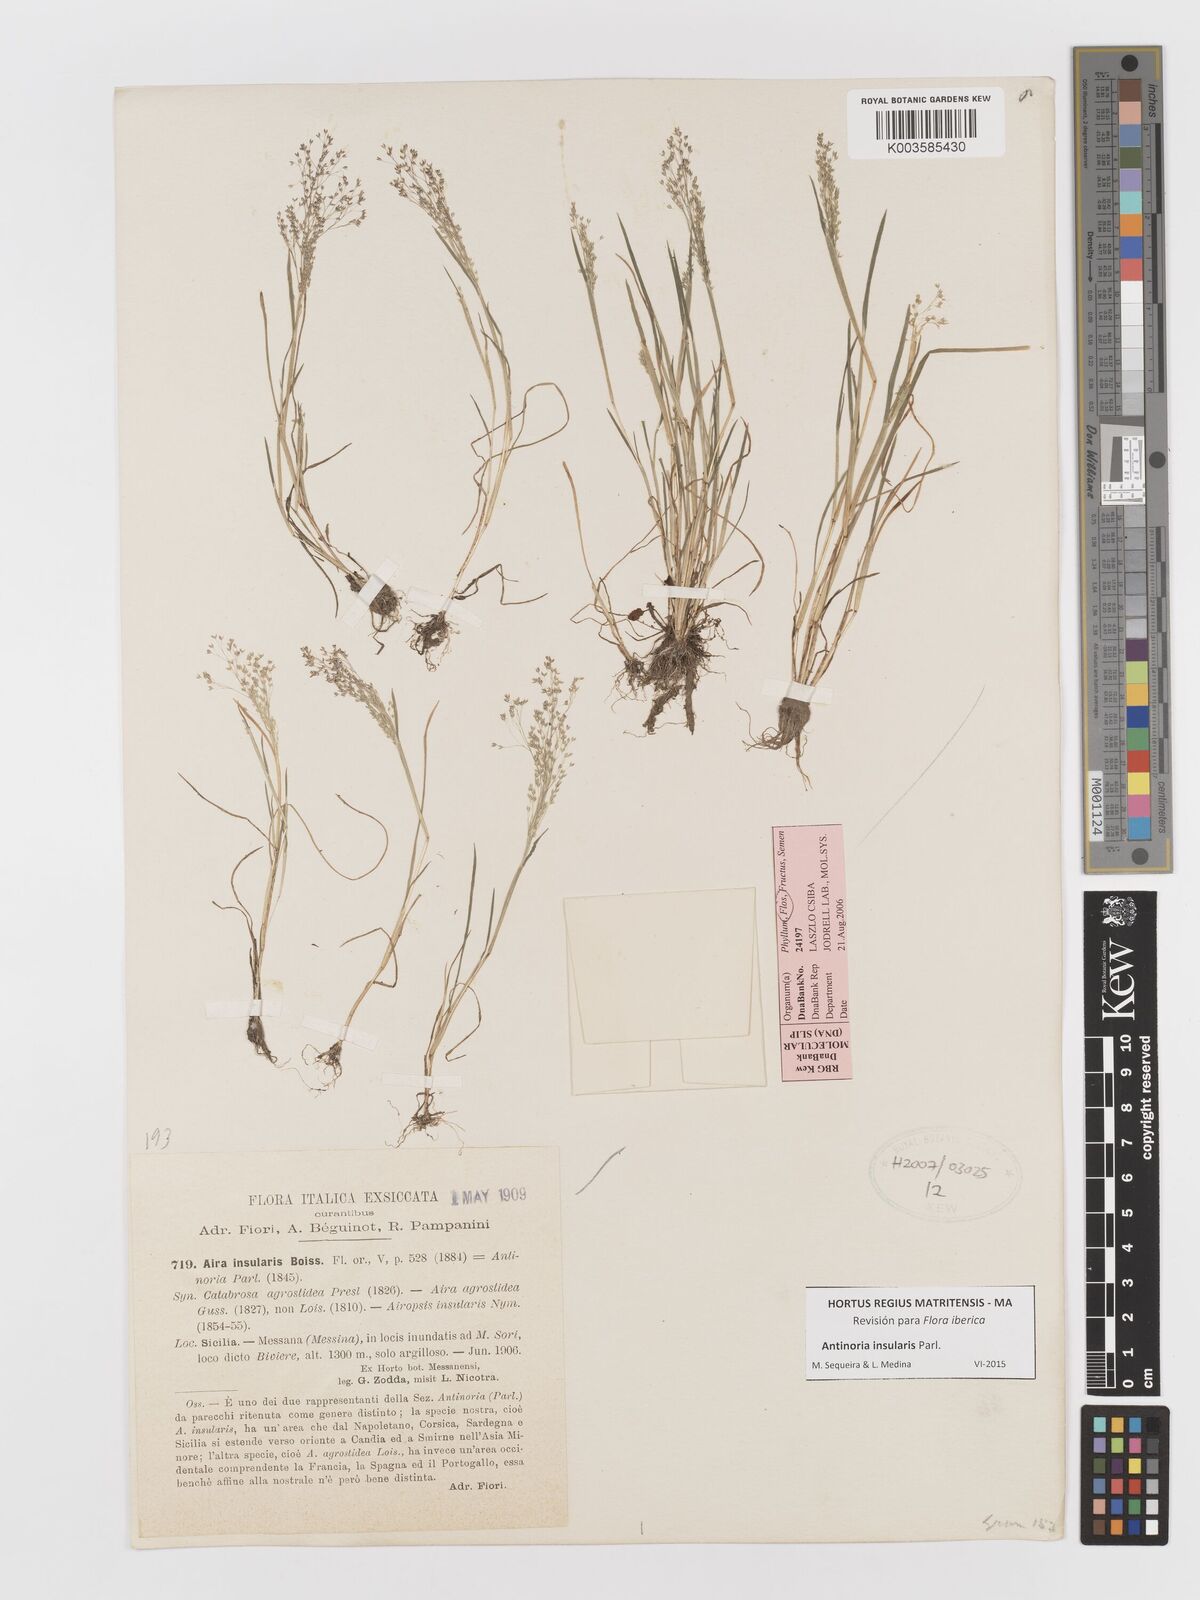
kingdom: Plantae
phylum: Tracheophyta
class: Liliopsida
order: Poales
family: Poaceae
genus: Antinoria
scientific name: Antinoria insularis
